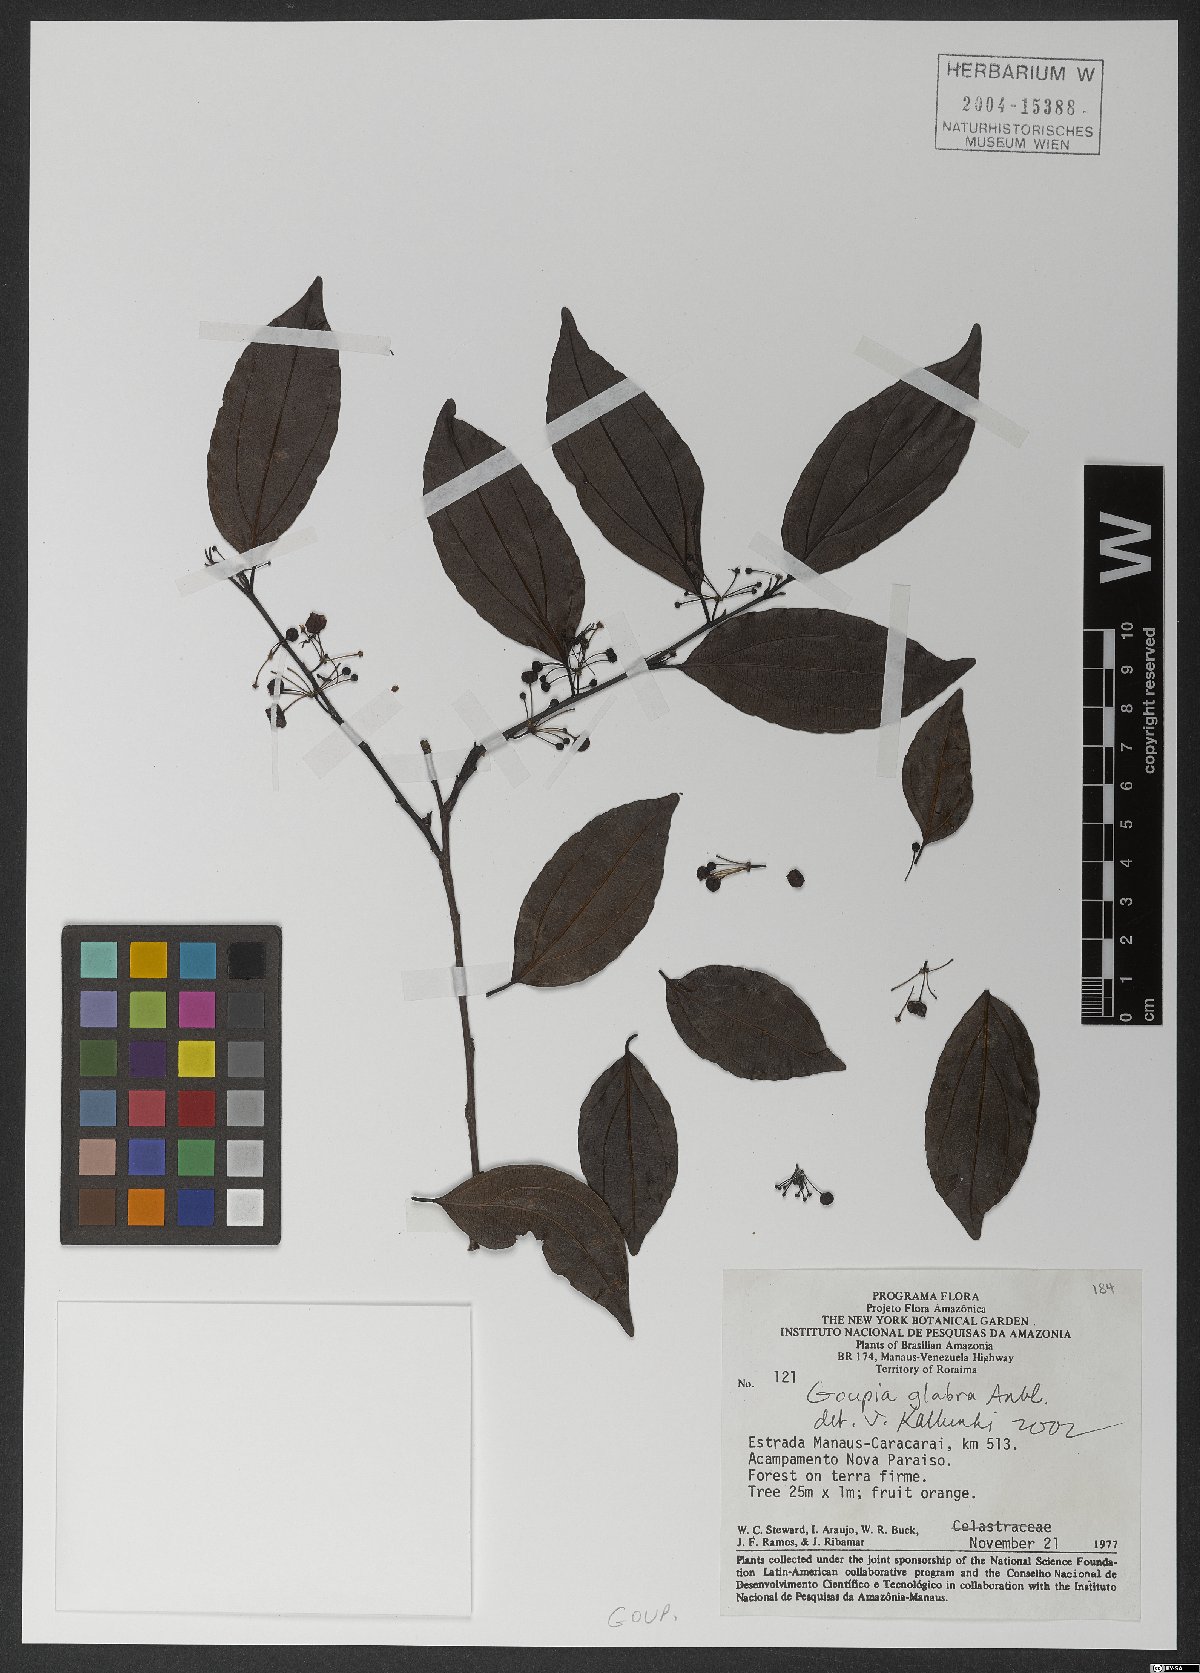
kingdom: Plantae
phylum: Tracheophyta
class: Magnoliopsida
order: Malpighiales
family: Goupiaceae
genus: Goupia
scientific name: Goupia glabra
